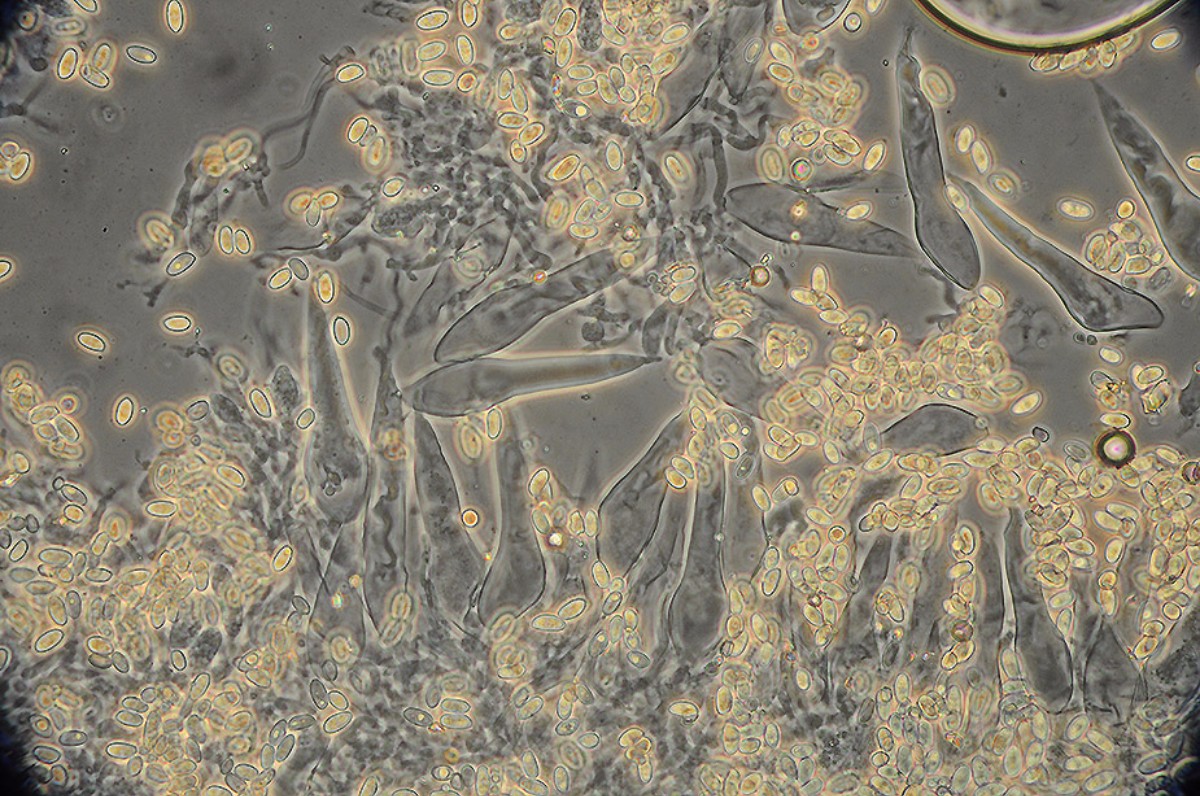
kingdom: Fungi
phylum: Basidiomycota
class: Agaricomycetes
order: Agaricales
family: Macrocystidiaceae
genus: Macrocystidia
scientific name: Macrocystidia cucumis
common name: Cucumber cap
